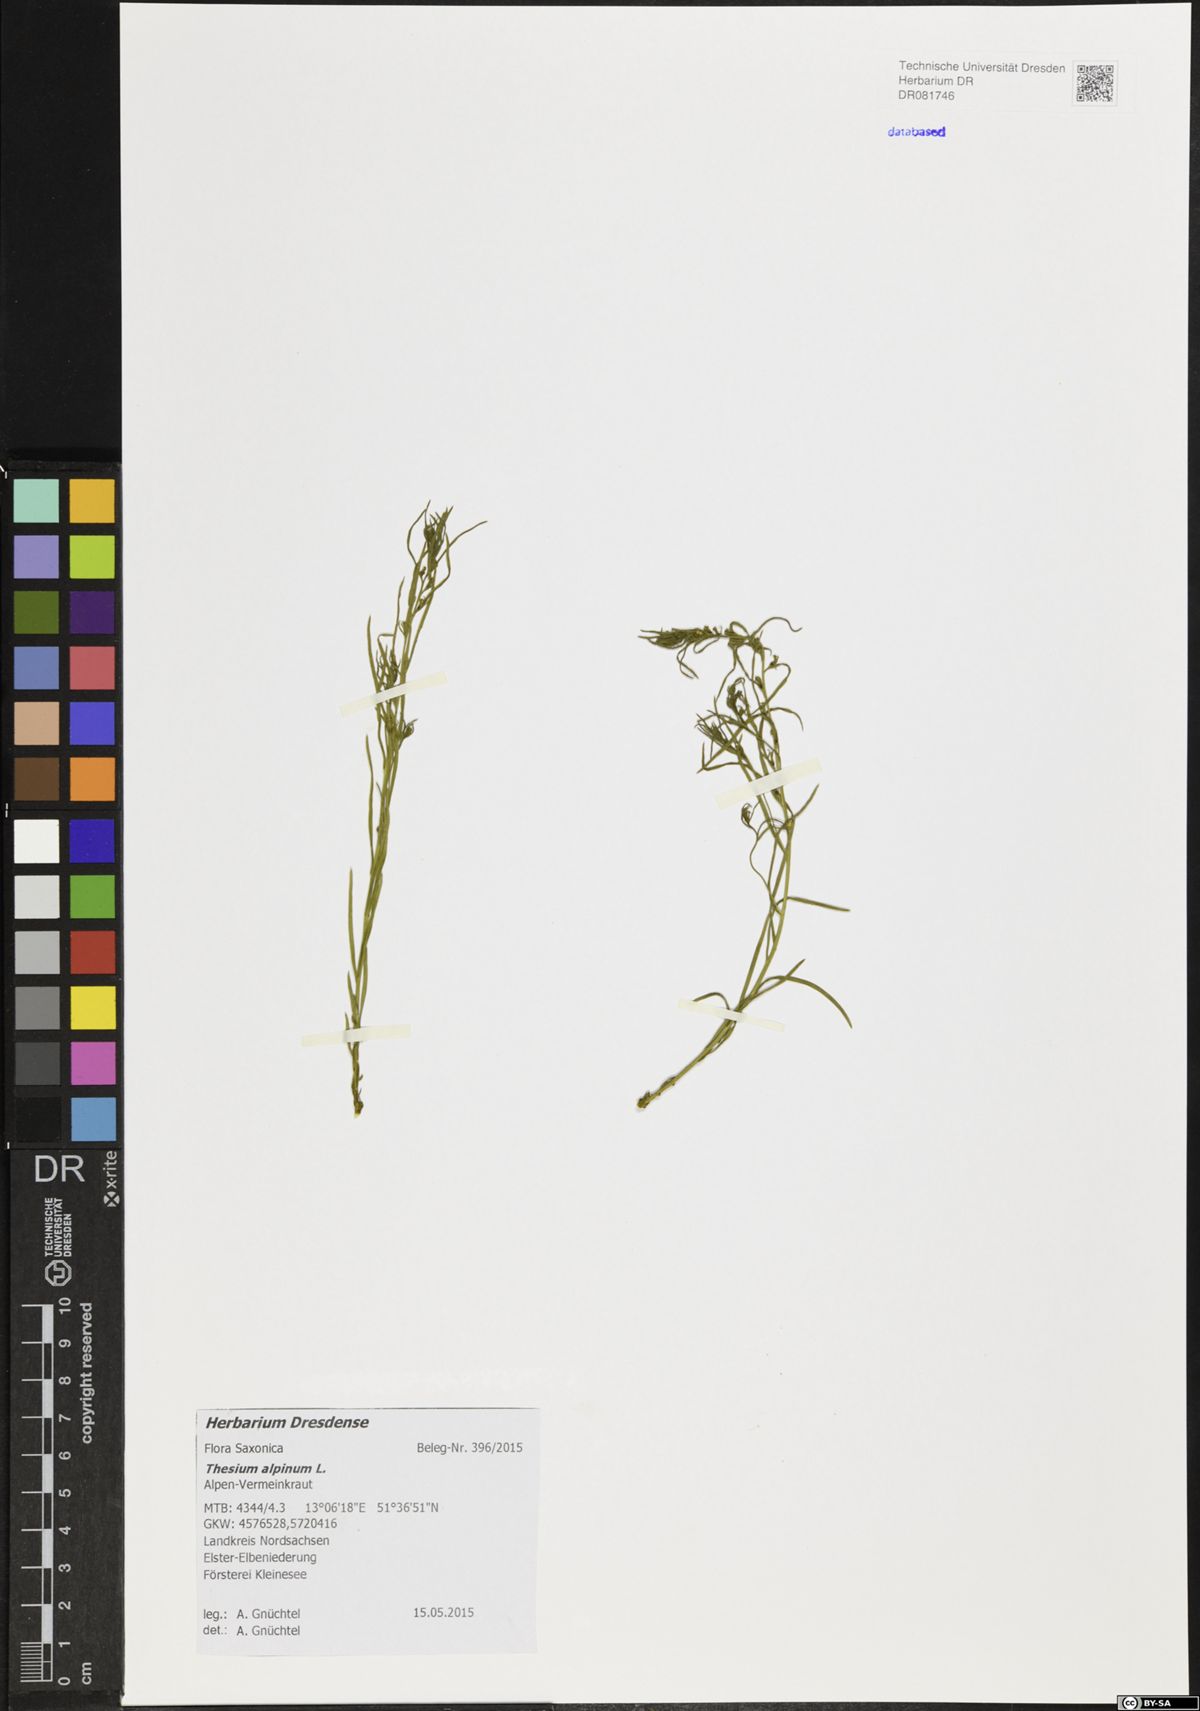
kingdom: Plantae
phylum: Tracheophyta
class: Magnoliopsida
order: Santalales
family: Thesiaceae
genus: Thesium
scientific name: Thesium alpinum
